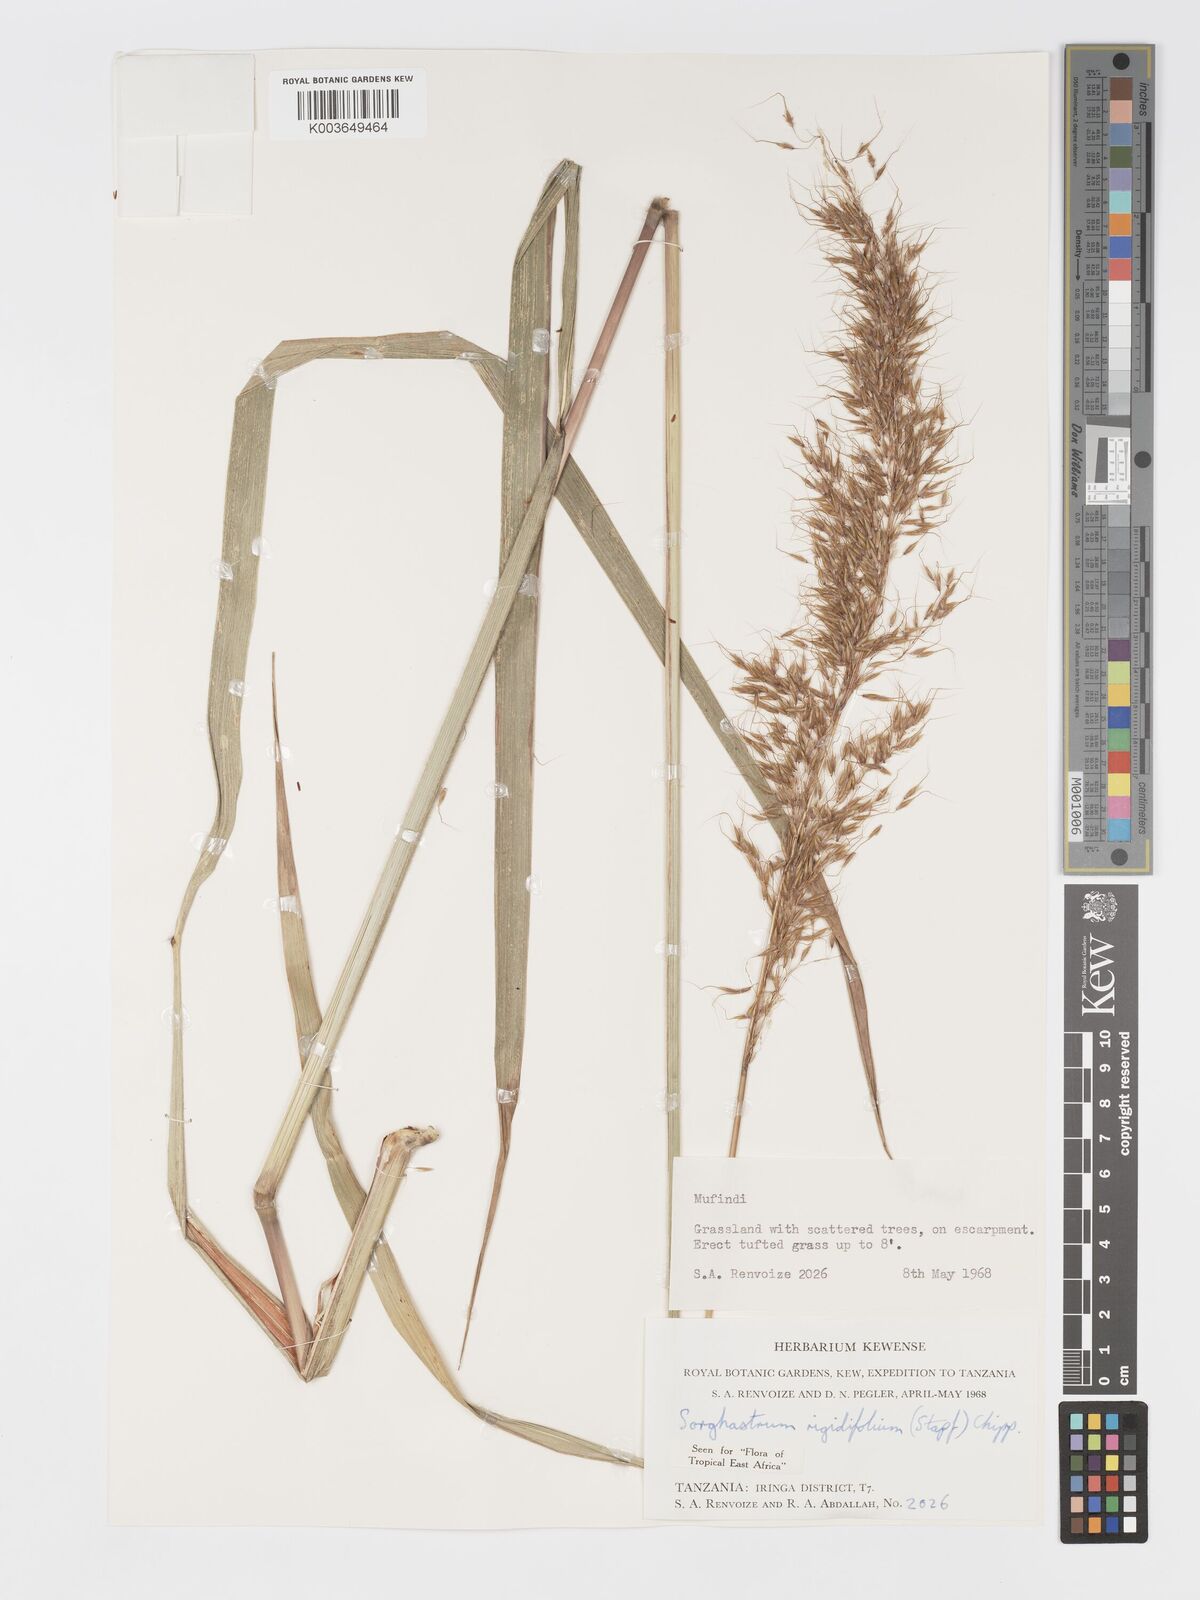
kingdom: Plantae
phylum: Tracheophyta
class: Liliopsida
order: Poales
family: Poaceae
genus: Sorghastrum
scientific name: Sorghastrum stipoides
